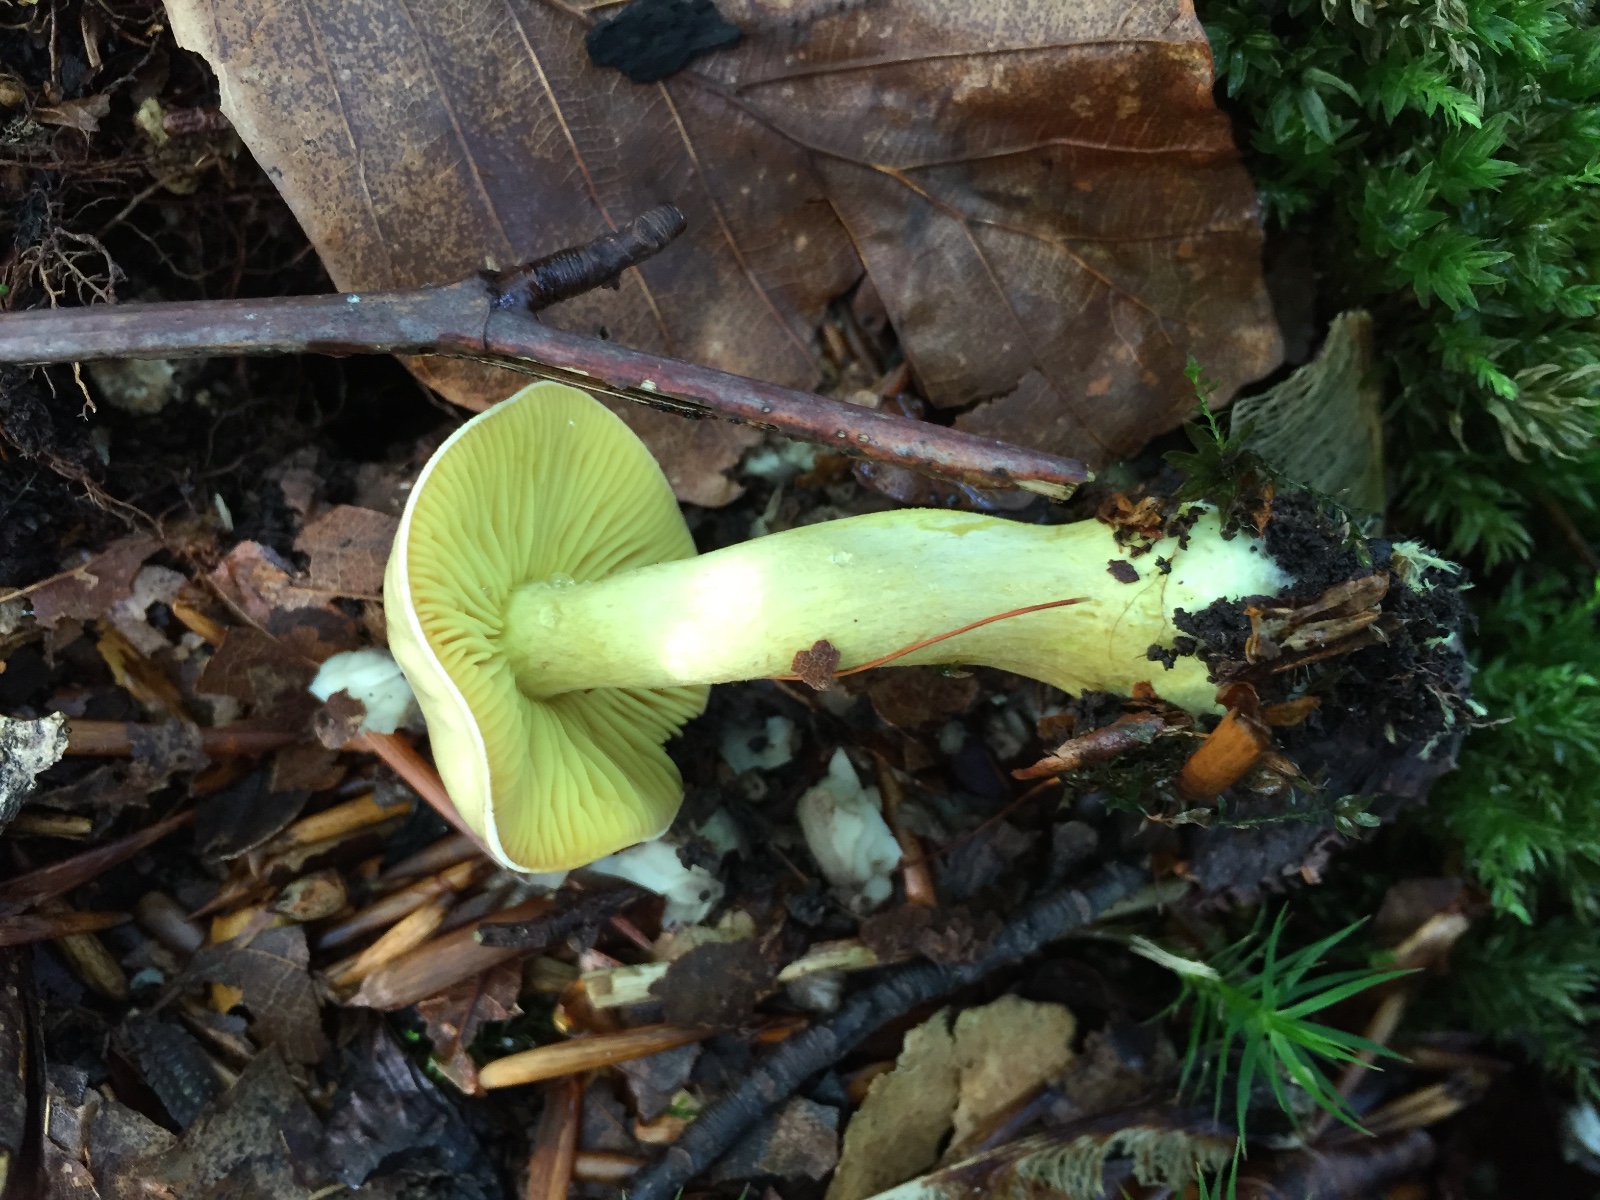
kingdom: Fungi
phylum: Basidiomycota
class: Agaricomycetes
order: Agaricales
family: Tricholomataceae
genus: Tricholoma
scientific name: Tricholoma sulphureum
